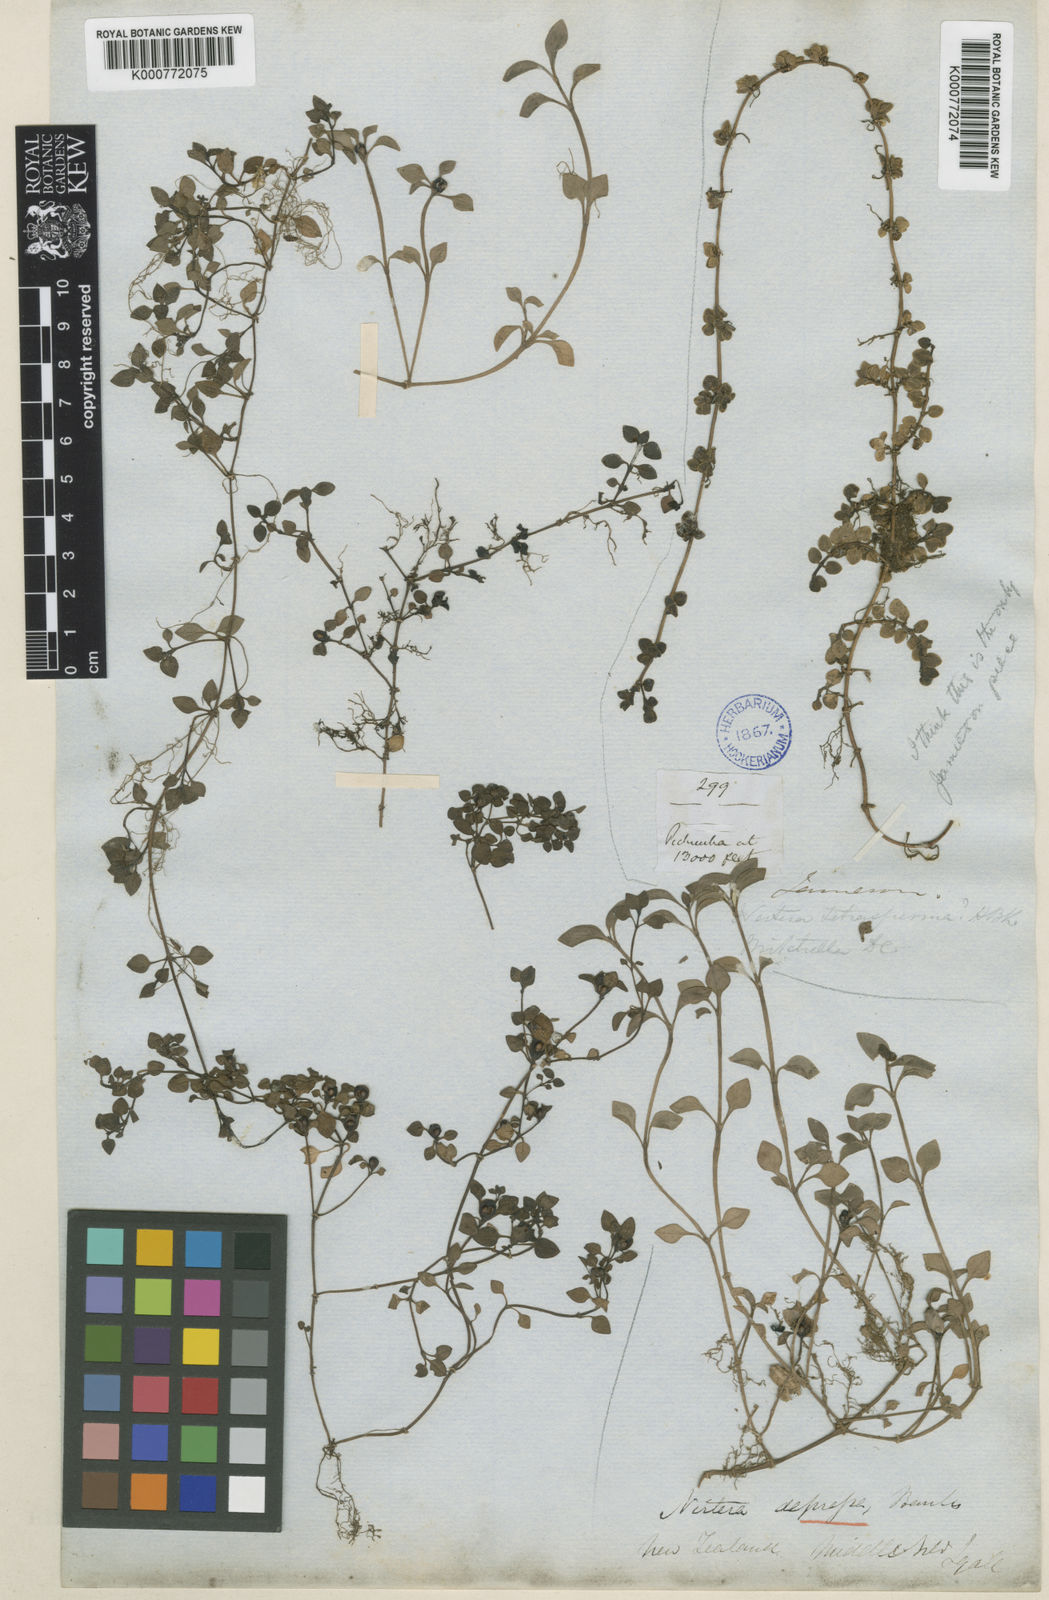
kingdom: Plantae
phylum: Tracheophyta
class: Magnoliopsida
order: Gentianales
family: Rubiaceae
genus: Nertera
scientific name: Nertera granadensis
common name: Beadplant
